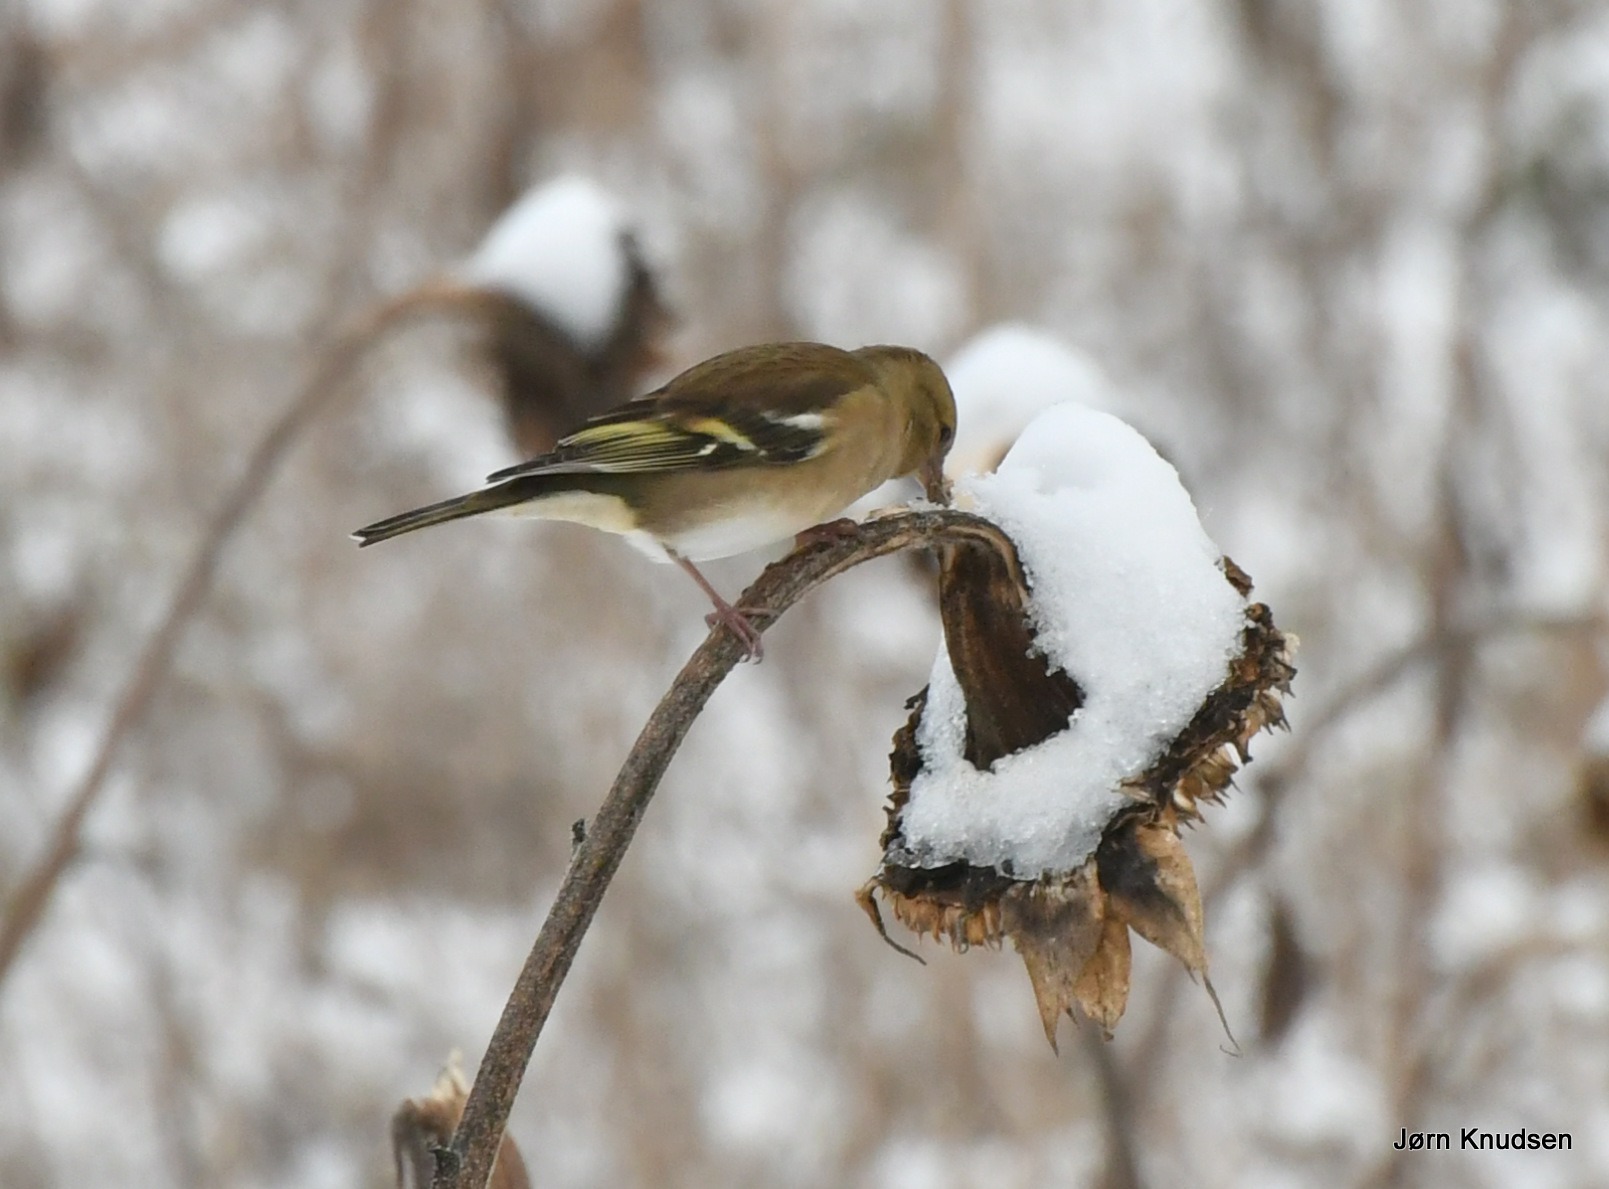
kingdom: Animalia
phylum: Chordata
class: Aves
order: Passeriformes
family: Fringillidae
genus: Fringilla
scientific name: Fringilla coelebs
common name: Bogfinke
